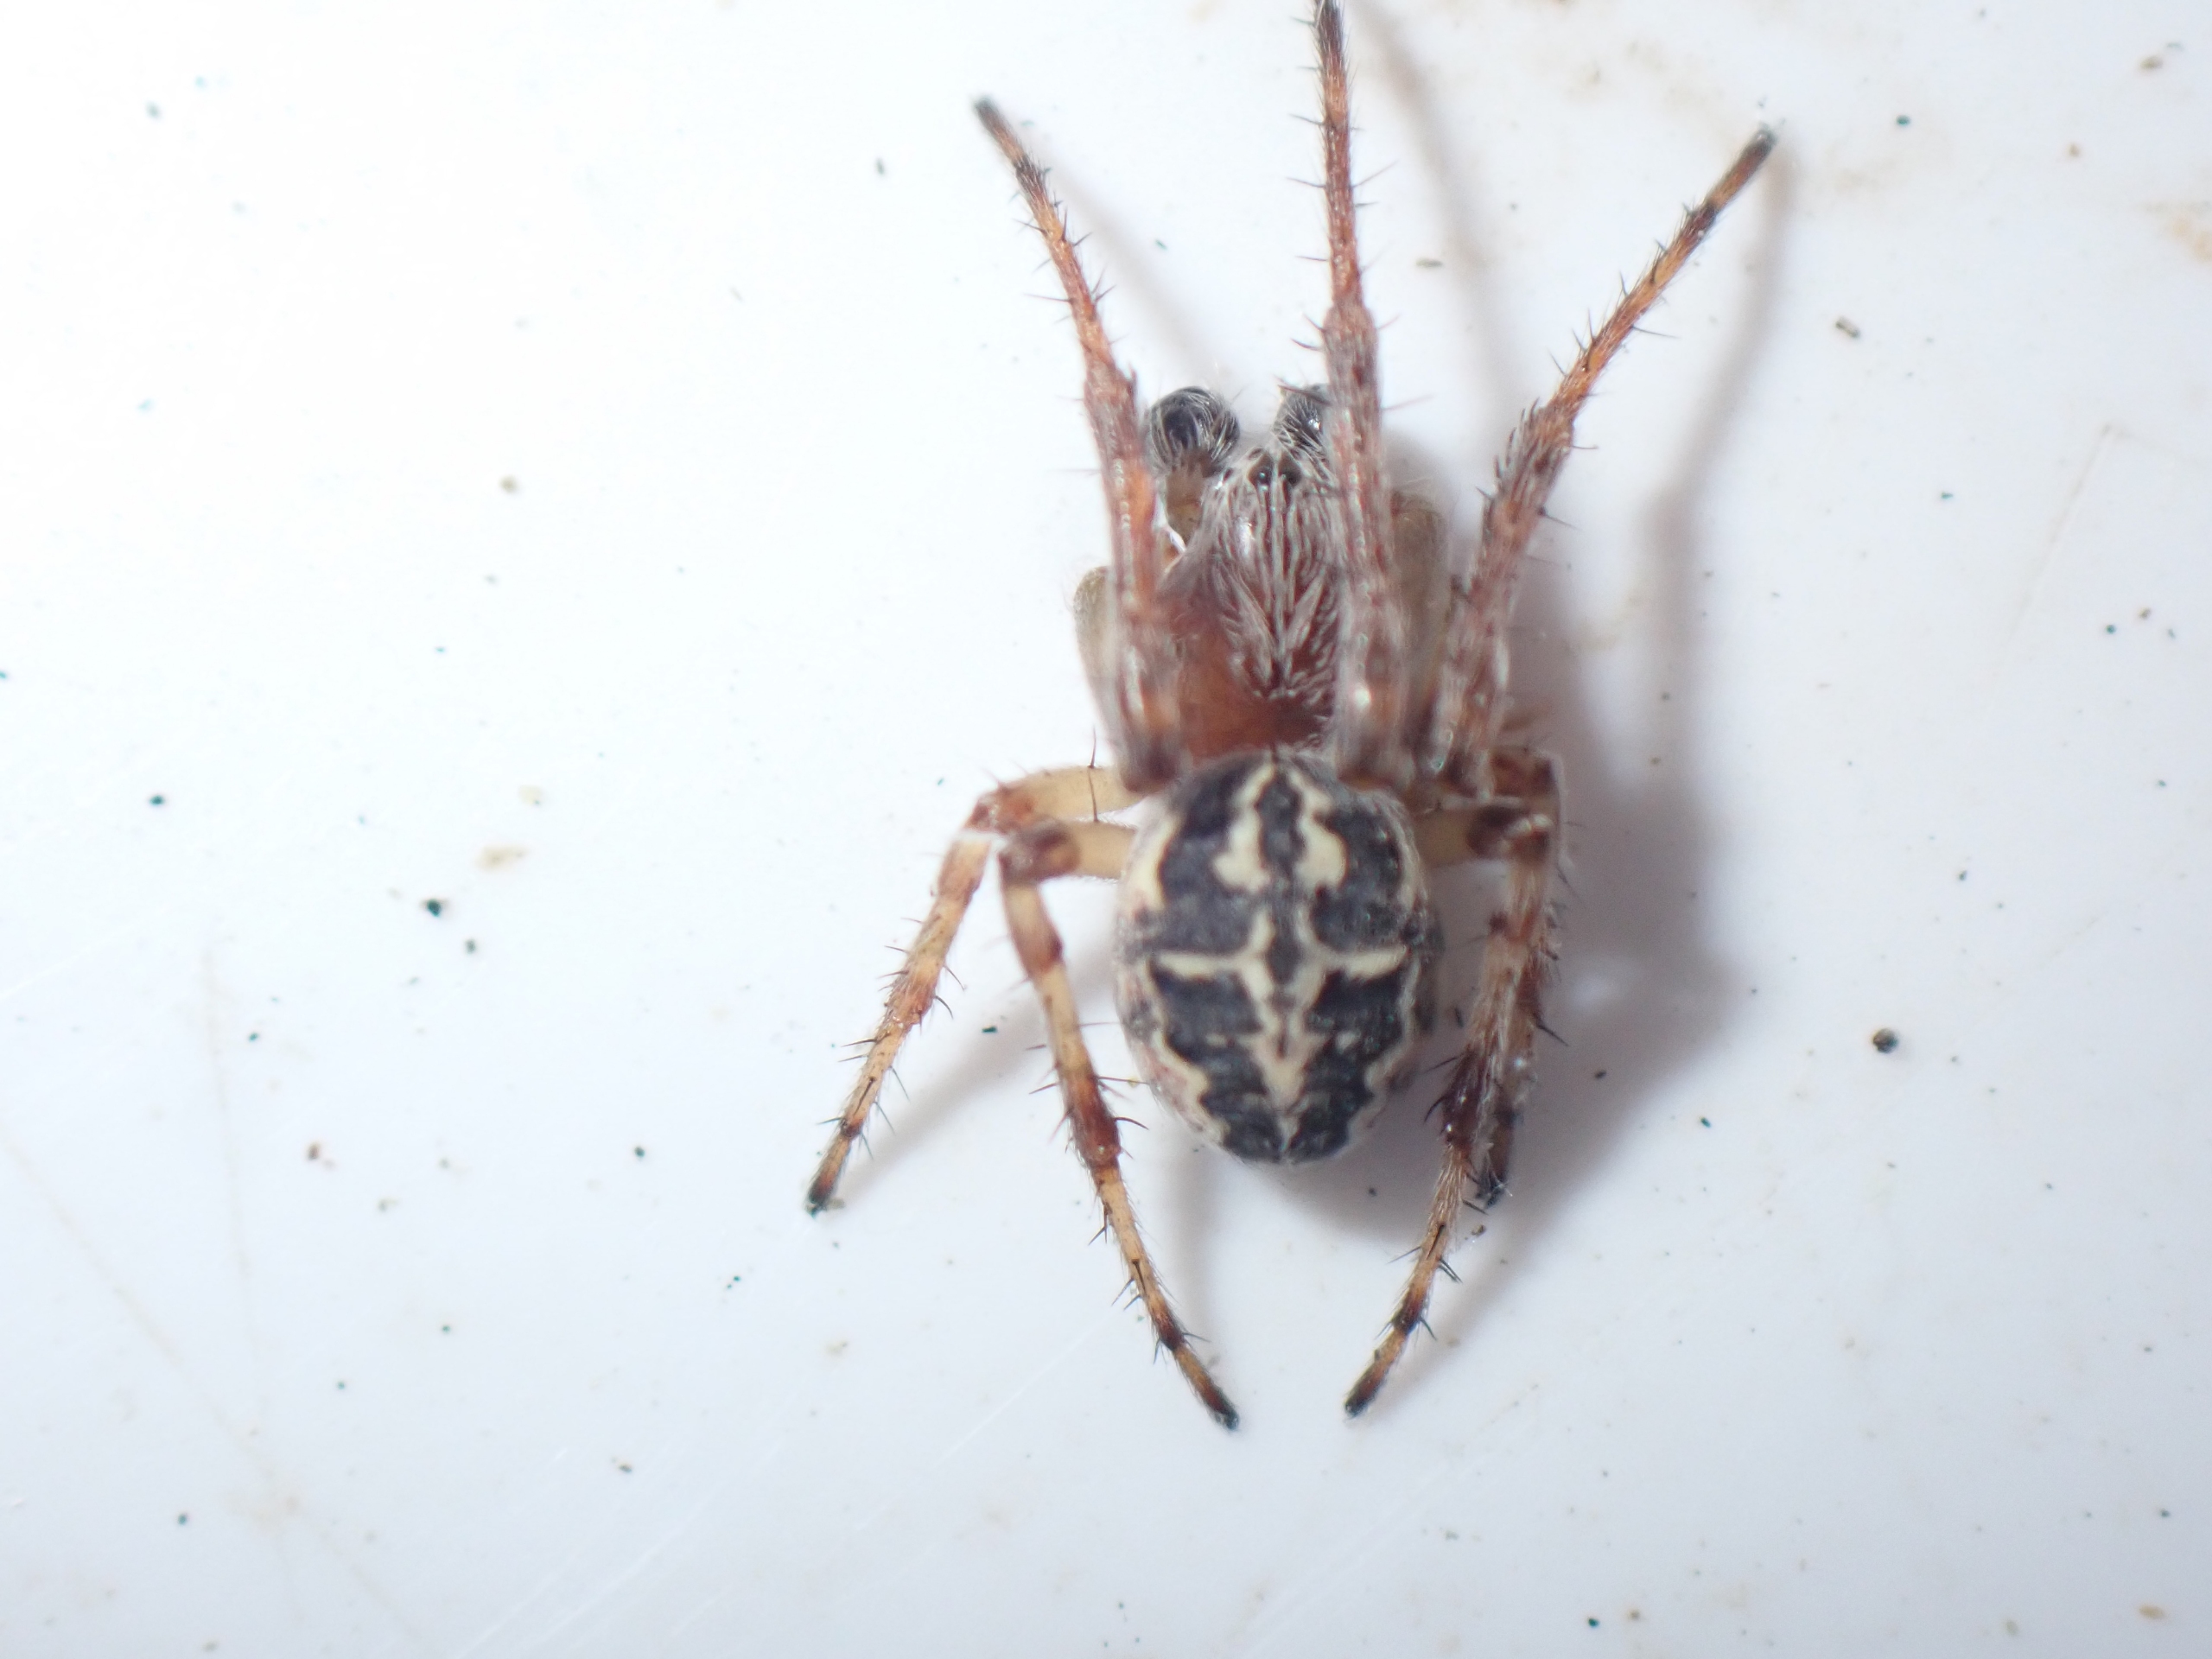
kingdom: Animalia
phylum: Arthropoda
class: Arachnida
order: Araneae
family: Araneidae
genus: Larinioides
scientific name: Larinioides cornutus
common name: Sivhjulspinder
